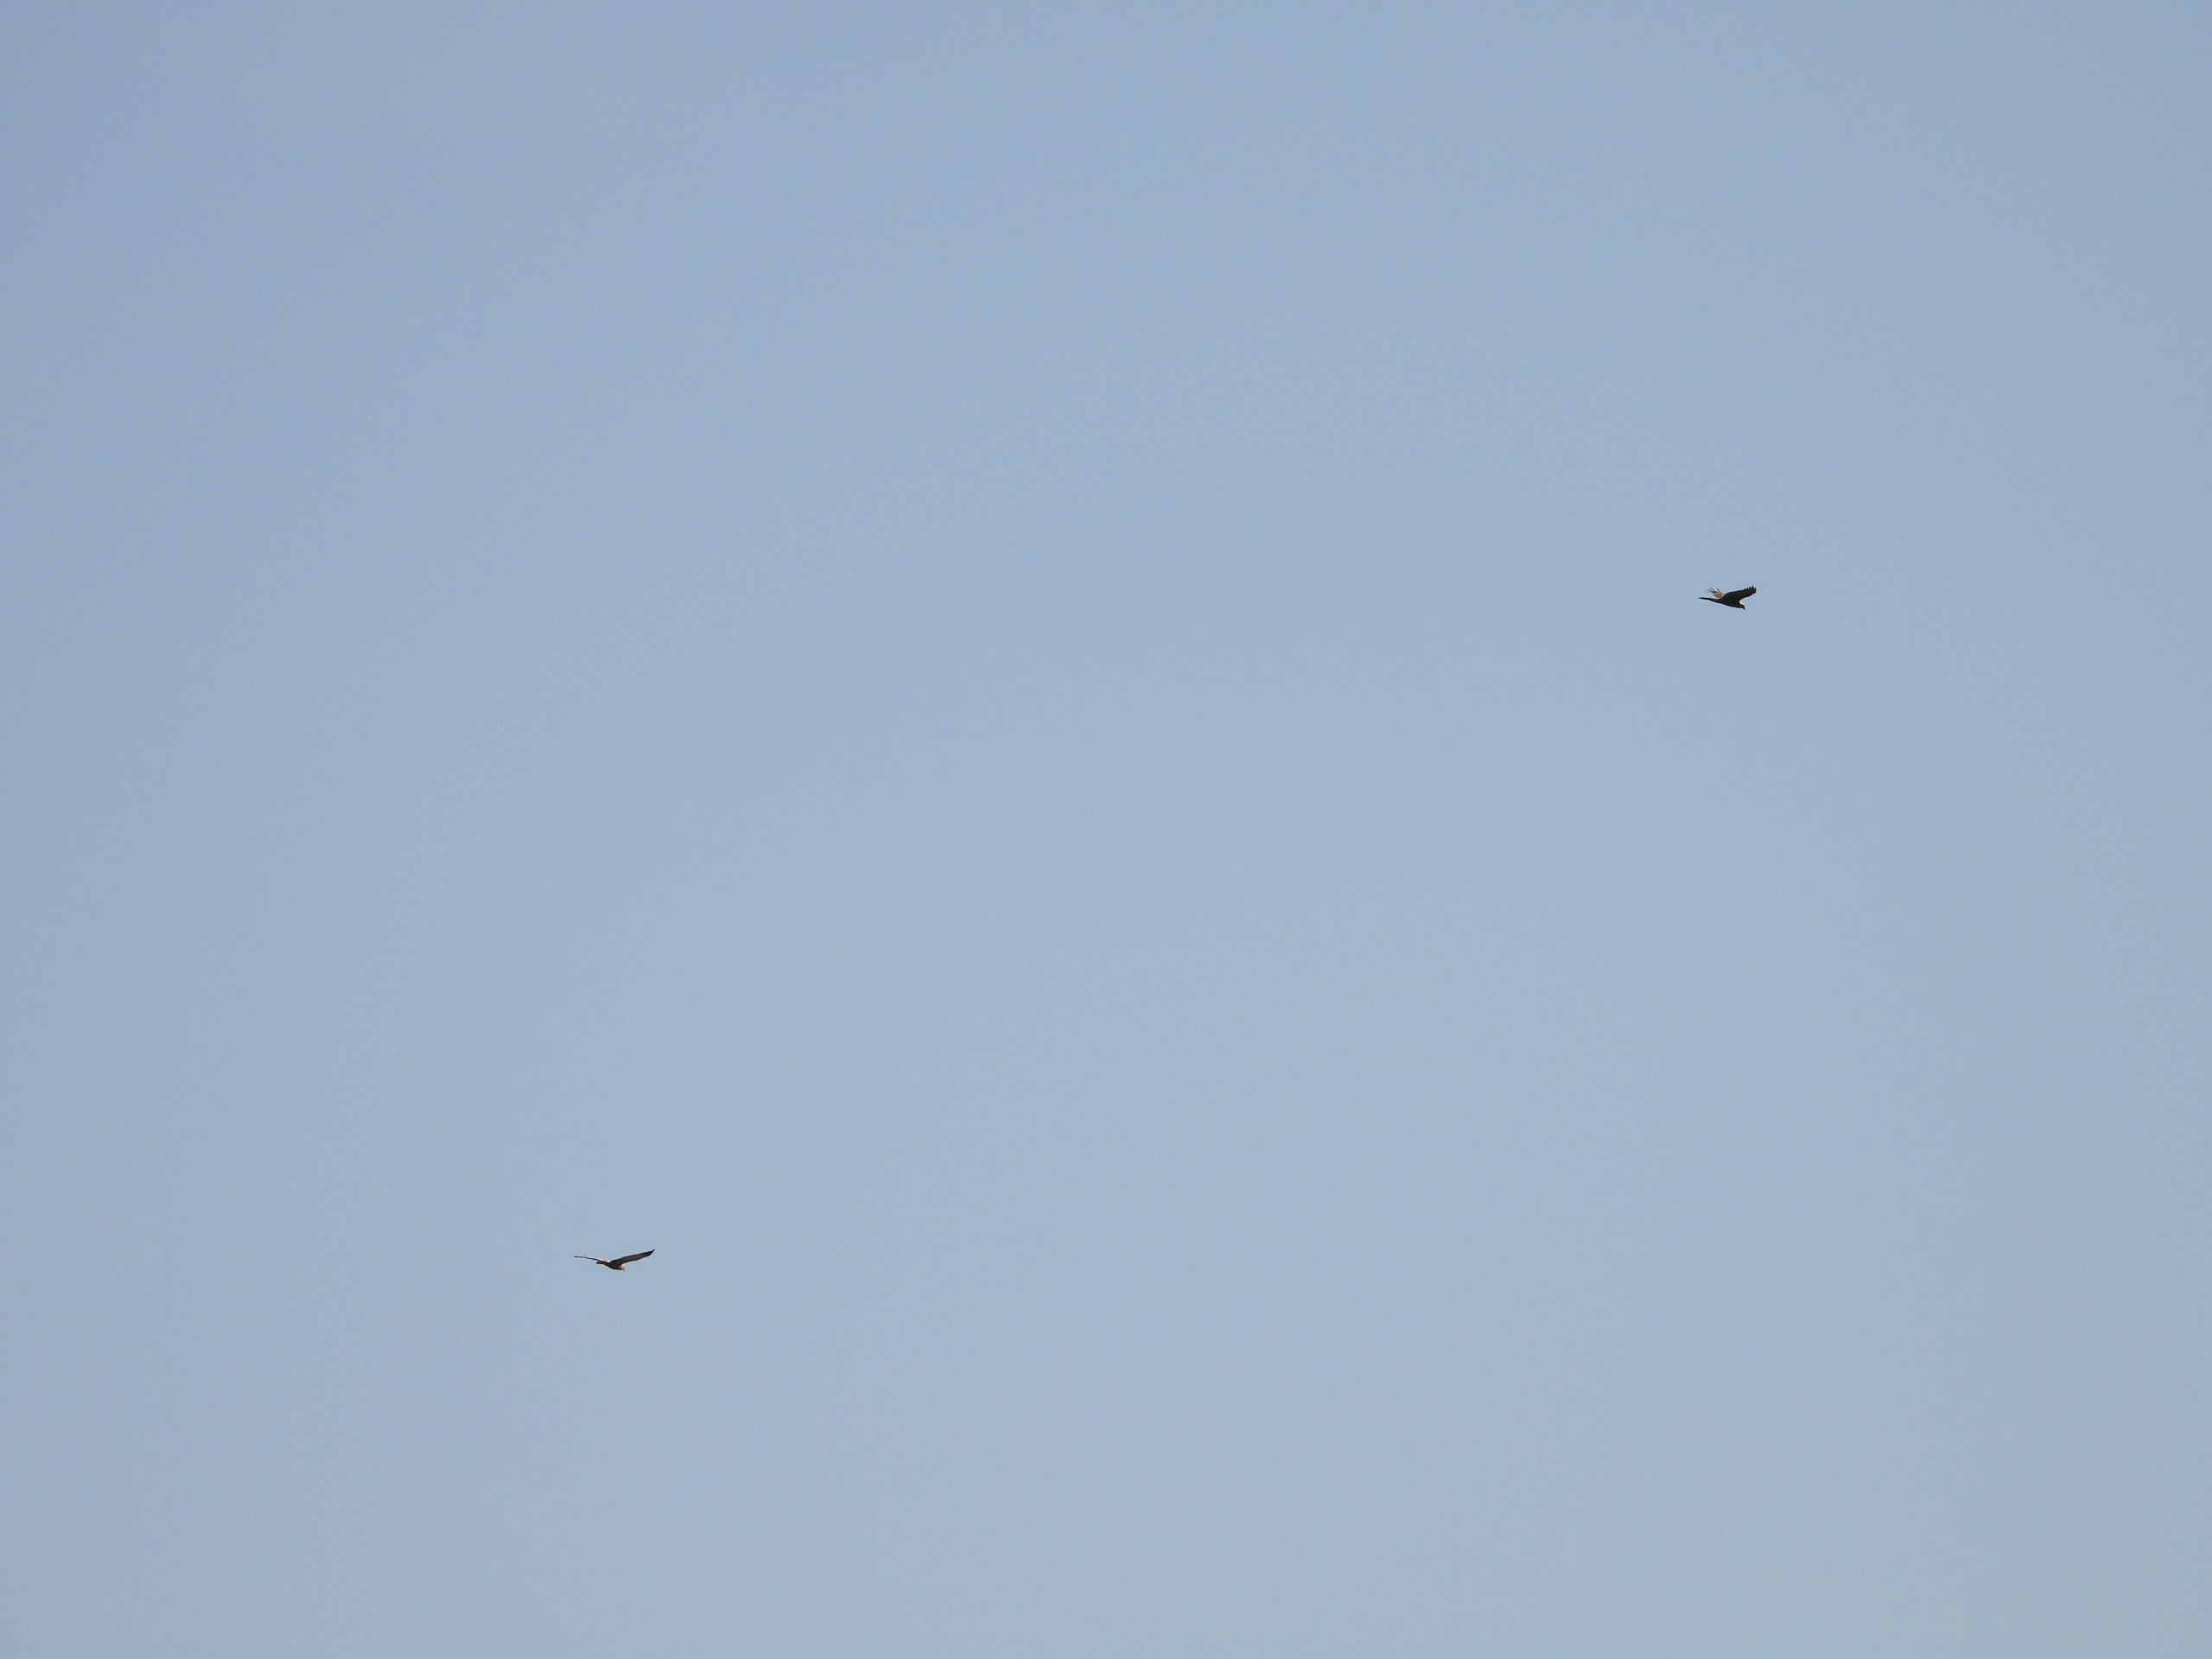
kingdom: Animalia
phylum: Chordata
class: Aves
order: Accipitriformes
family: Accipitridae
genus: Circus
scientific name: Circus aeruginosus
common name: Rørhøg
